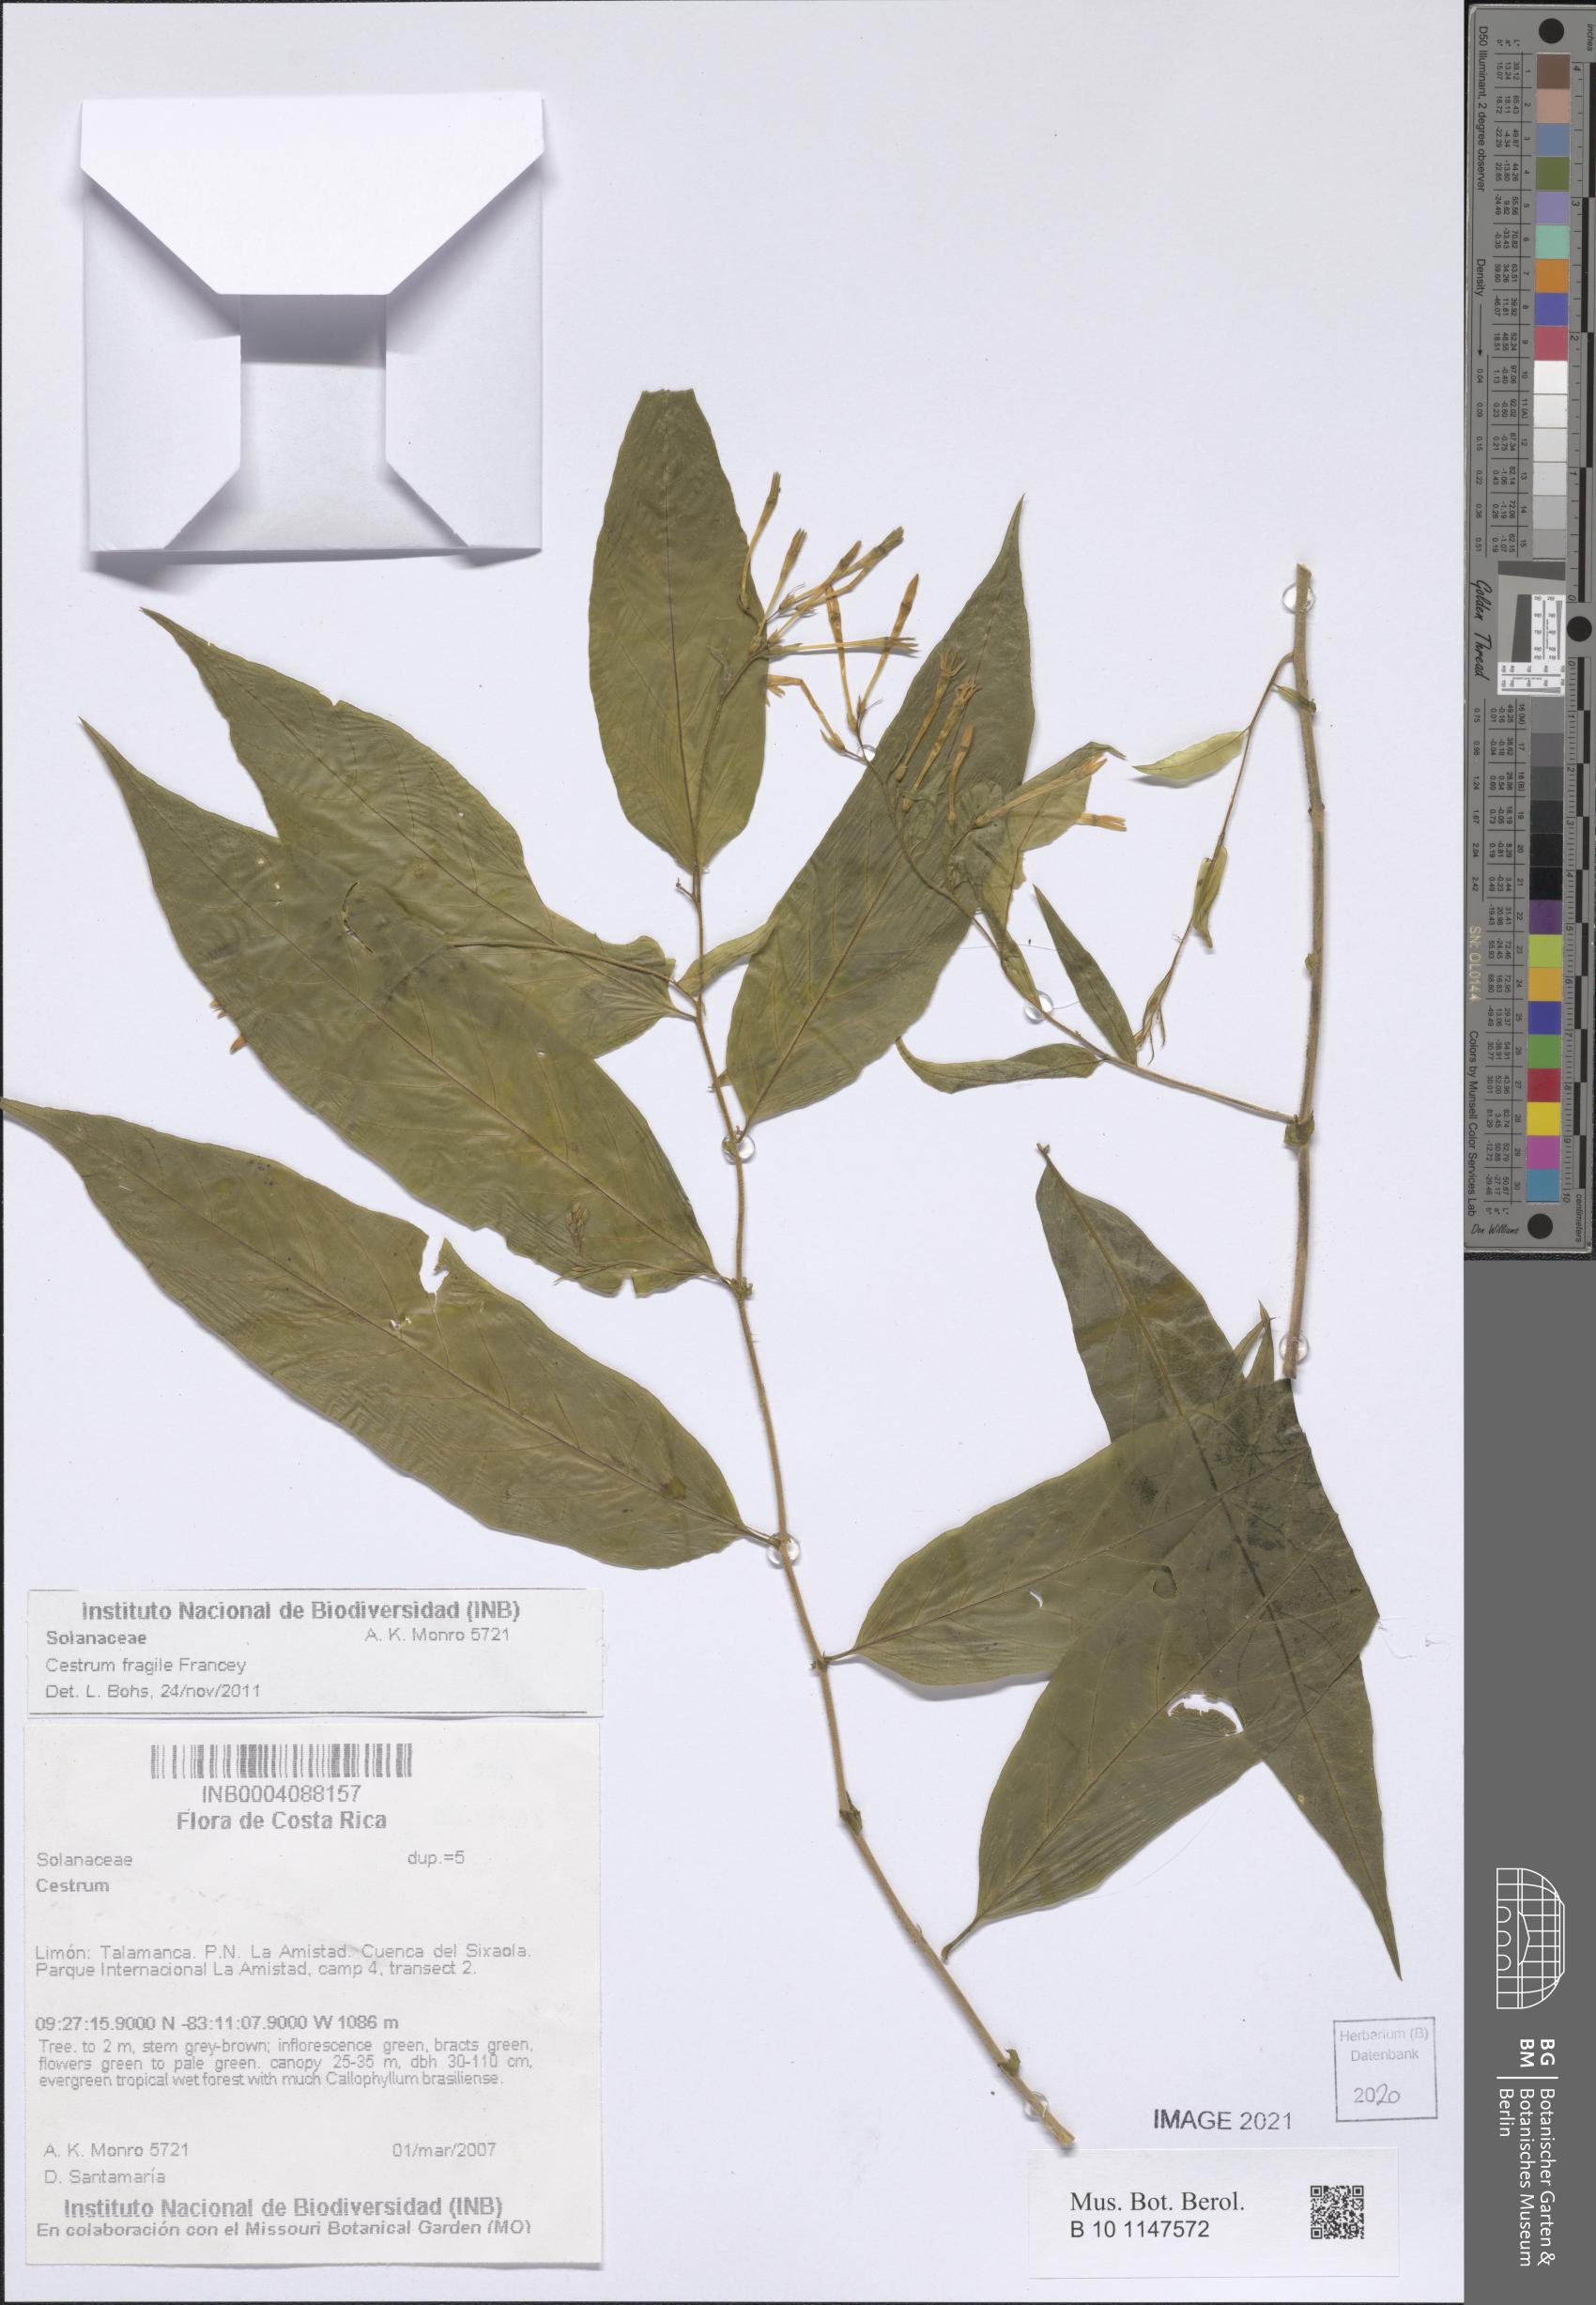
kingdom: Plantae
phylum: Tracheophyta
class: Magnoliopsida
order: Solanales
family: Solanaceae
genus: Cestrum
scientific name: Cestrum fragile
